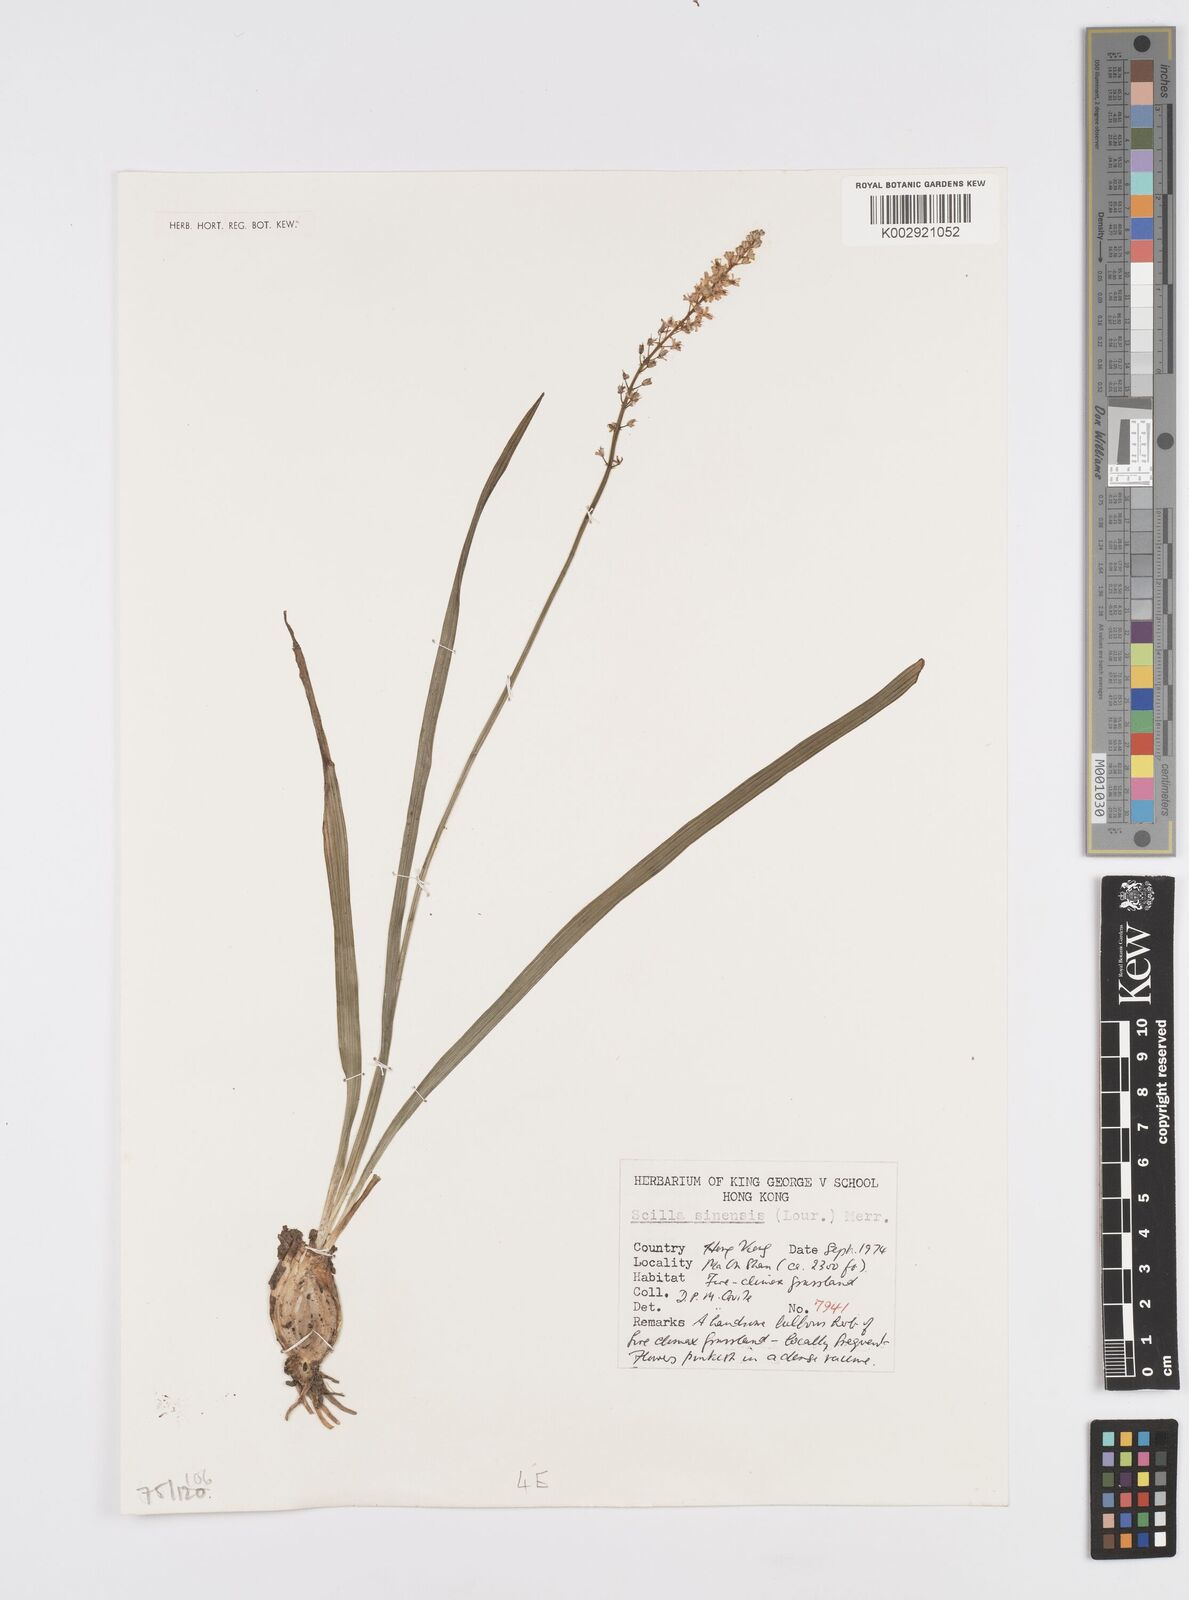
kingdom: Plantae
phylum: Tracheophyta
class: Liliopsida
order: Asparagales
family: Asparagaceae
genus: Barnardia
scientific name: Barnardia japonica
